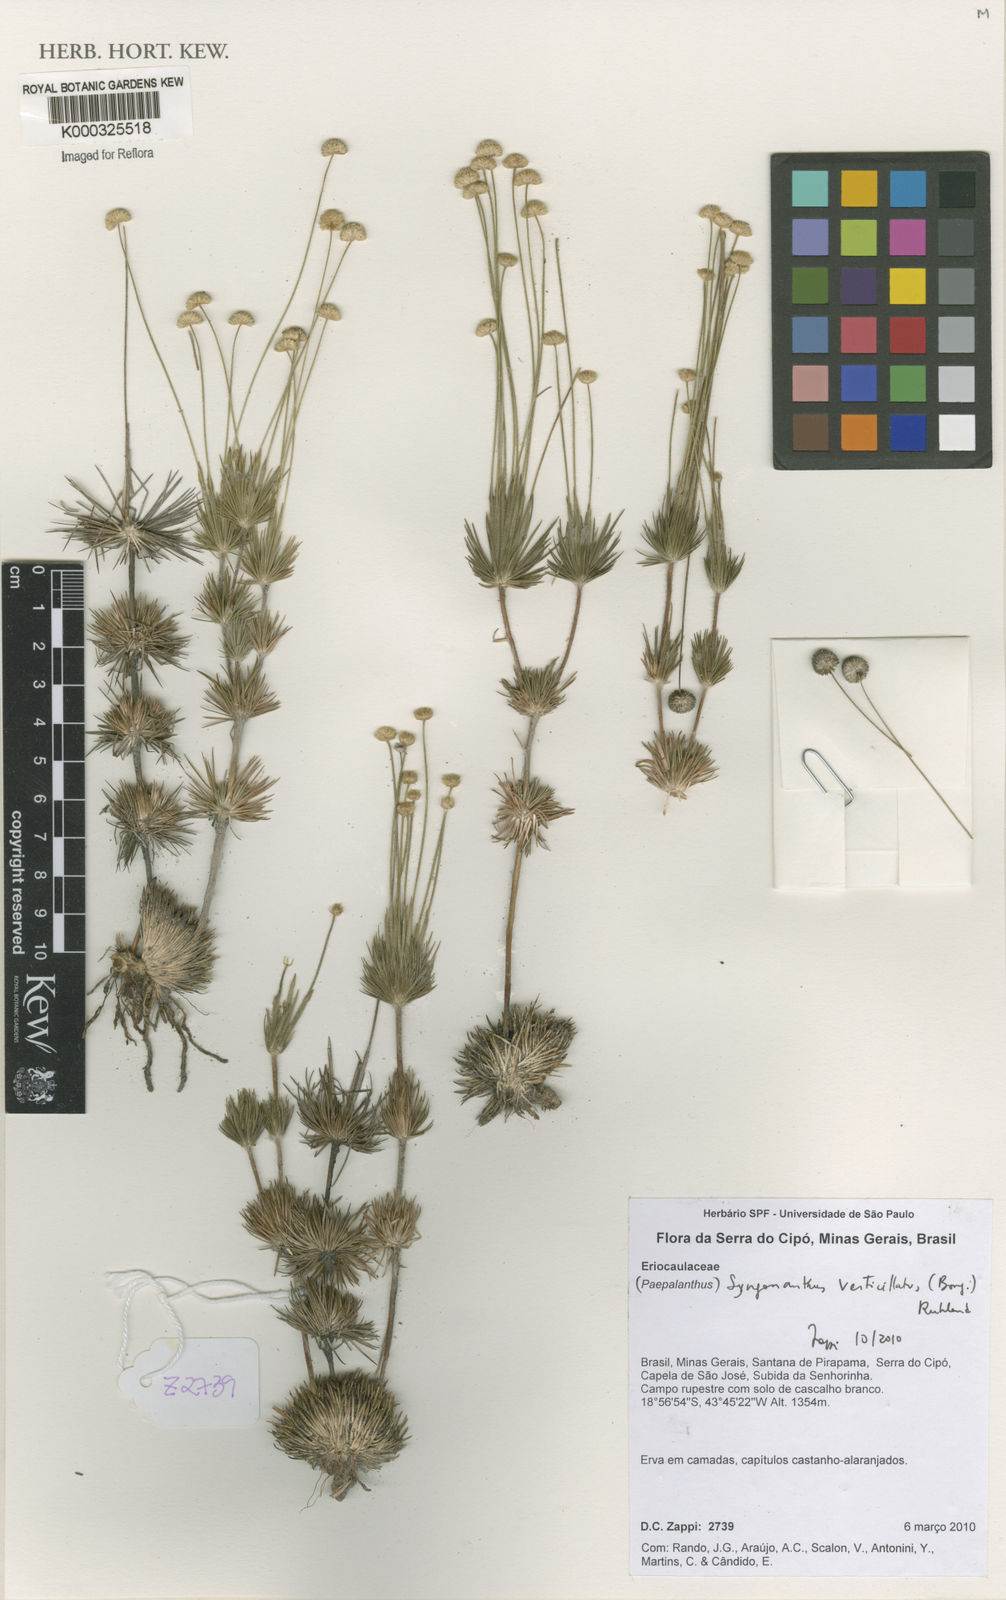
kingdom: Plantae
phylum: Tracheophyta
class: Liliopsida
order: Poales
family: Eriocaulaceae
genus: Syngonanthus
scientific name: Syngonanthus verticillatus
